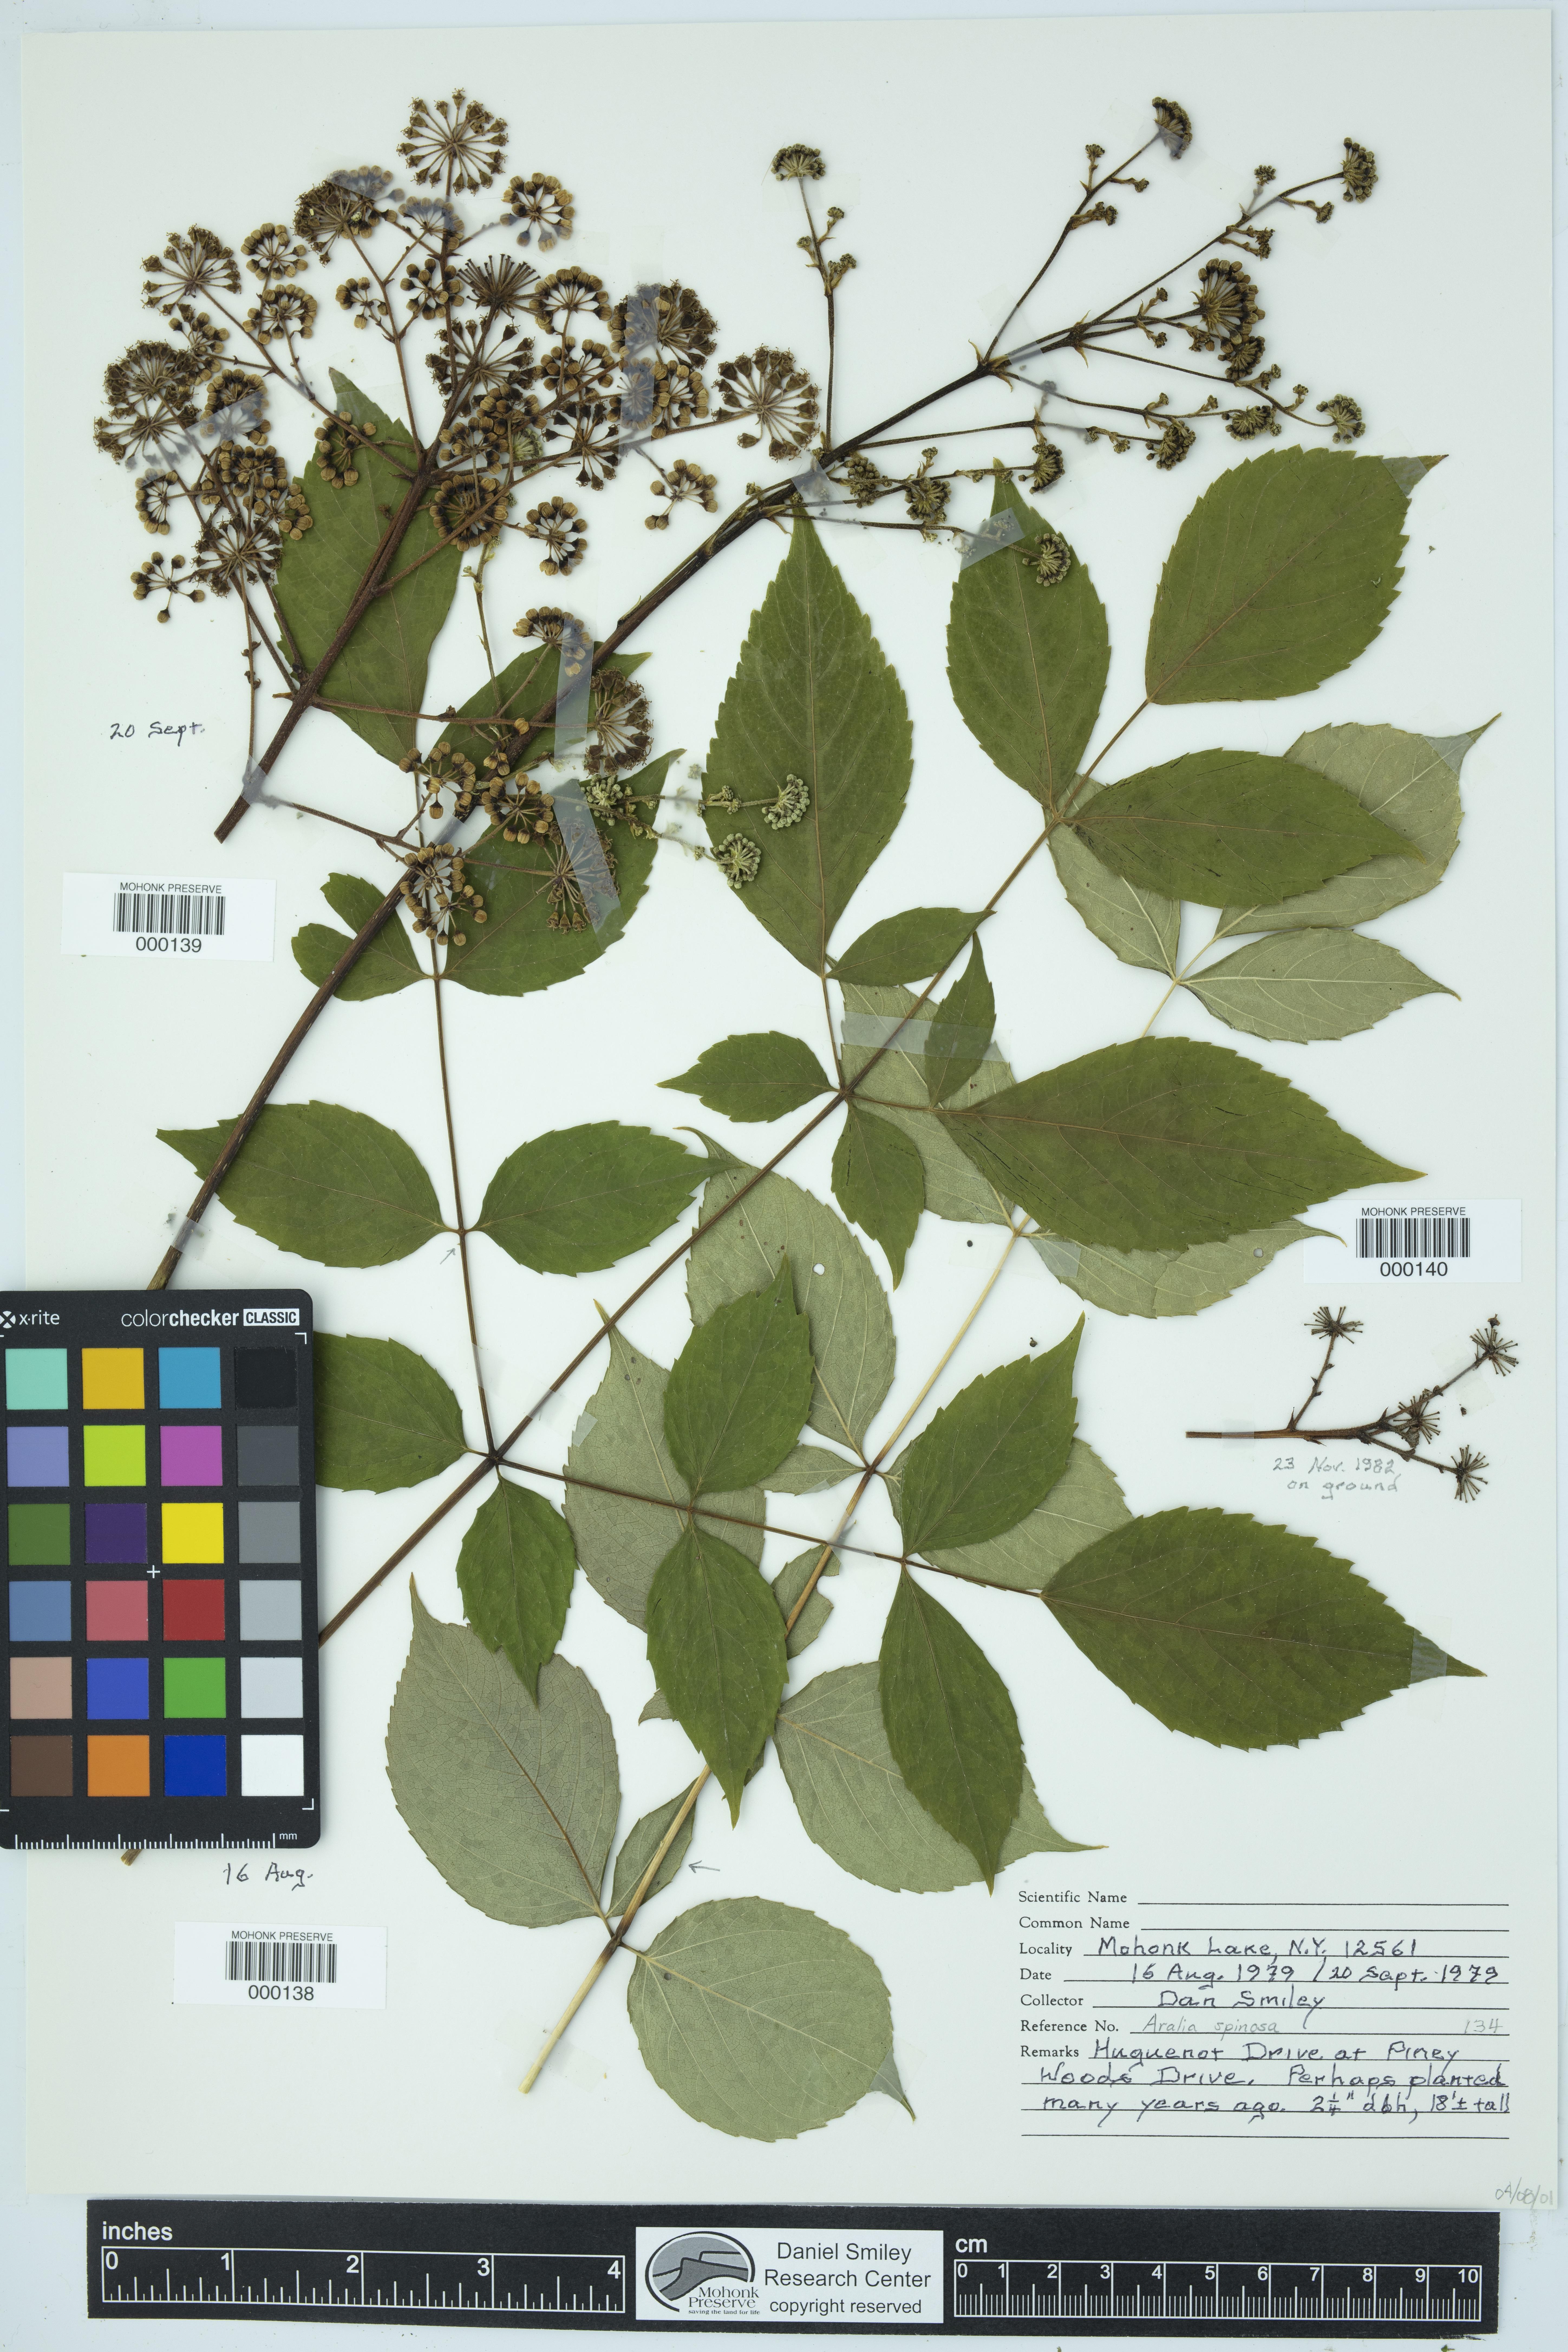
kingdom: Plantae
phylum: Tracheophyta
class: Magnoliopsida
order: Apiales
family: Araliaceae
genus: Aralia
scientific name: Aralia spinosa
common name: Hercules'-club
